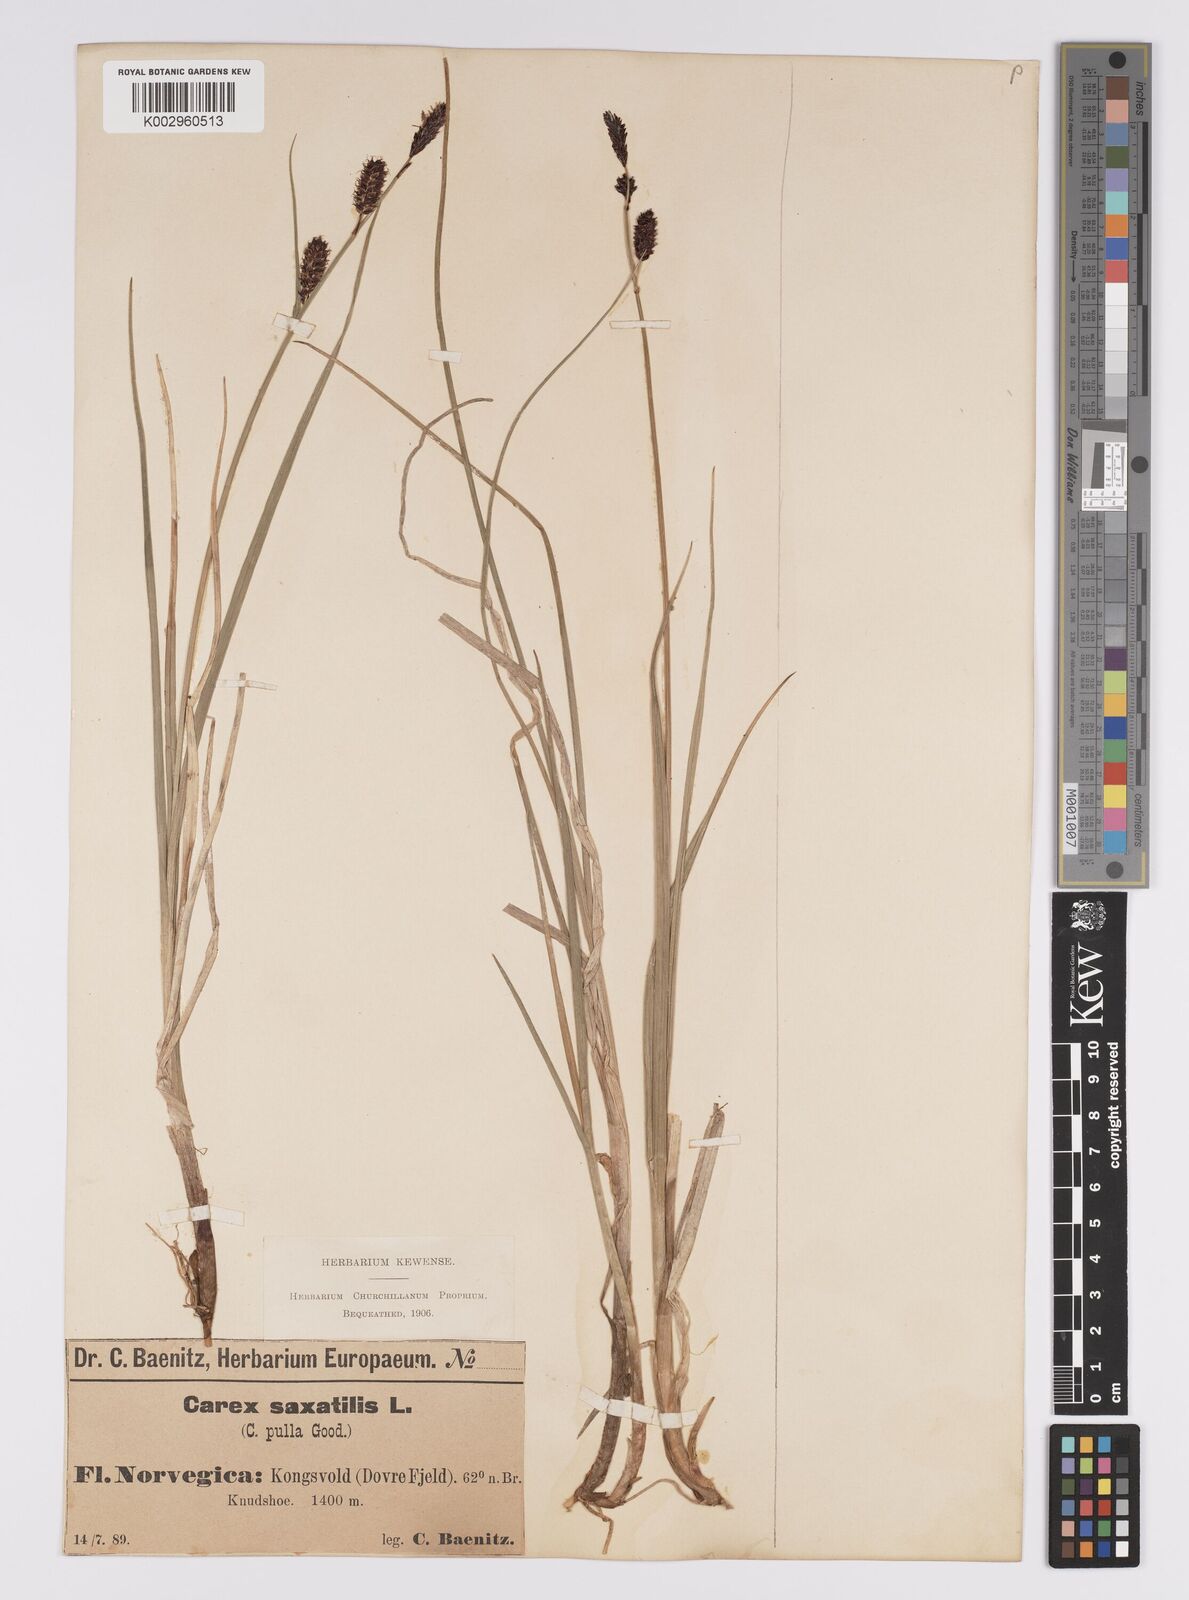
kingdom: Plantae
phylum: Tracheophyta
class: Liliopsida
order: Poales
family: Cyperaceae
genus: Carex
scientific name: Carex saxatilis
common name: Russet sedge
